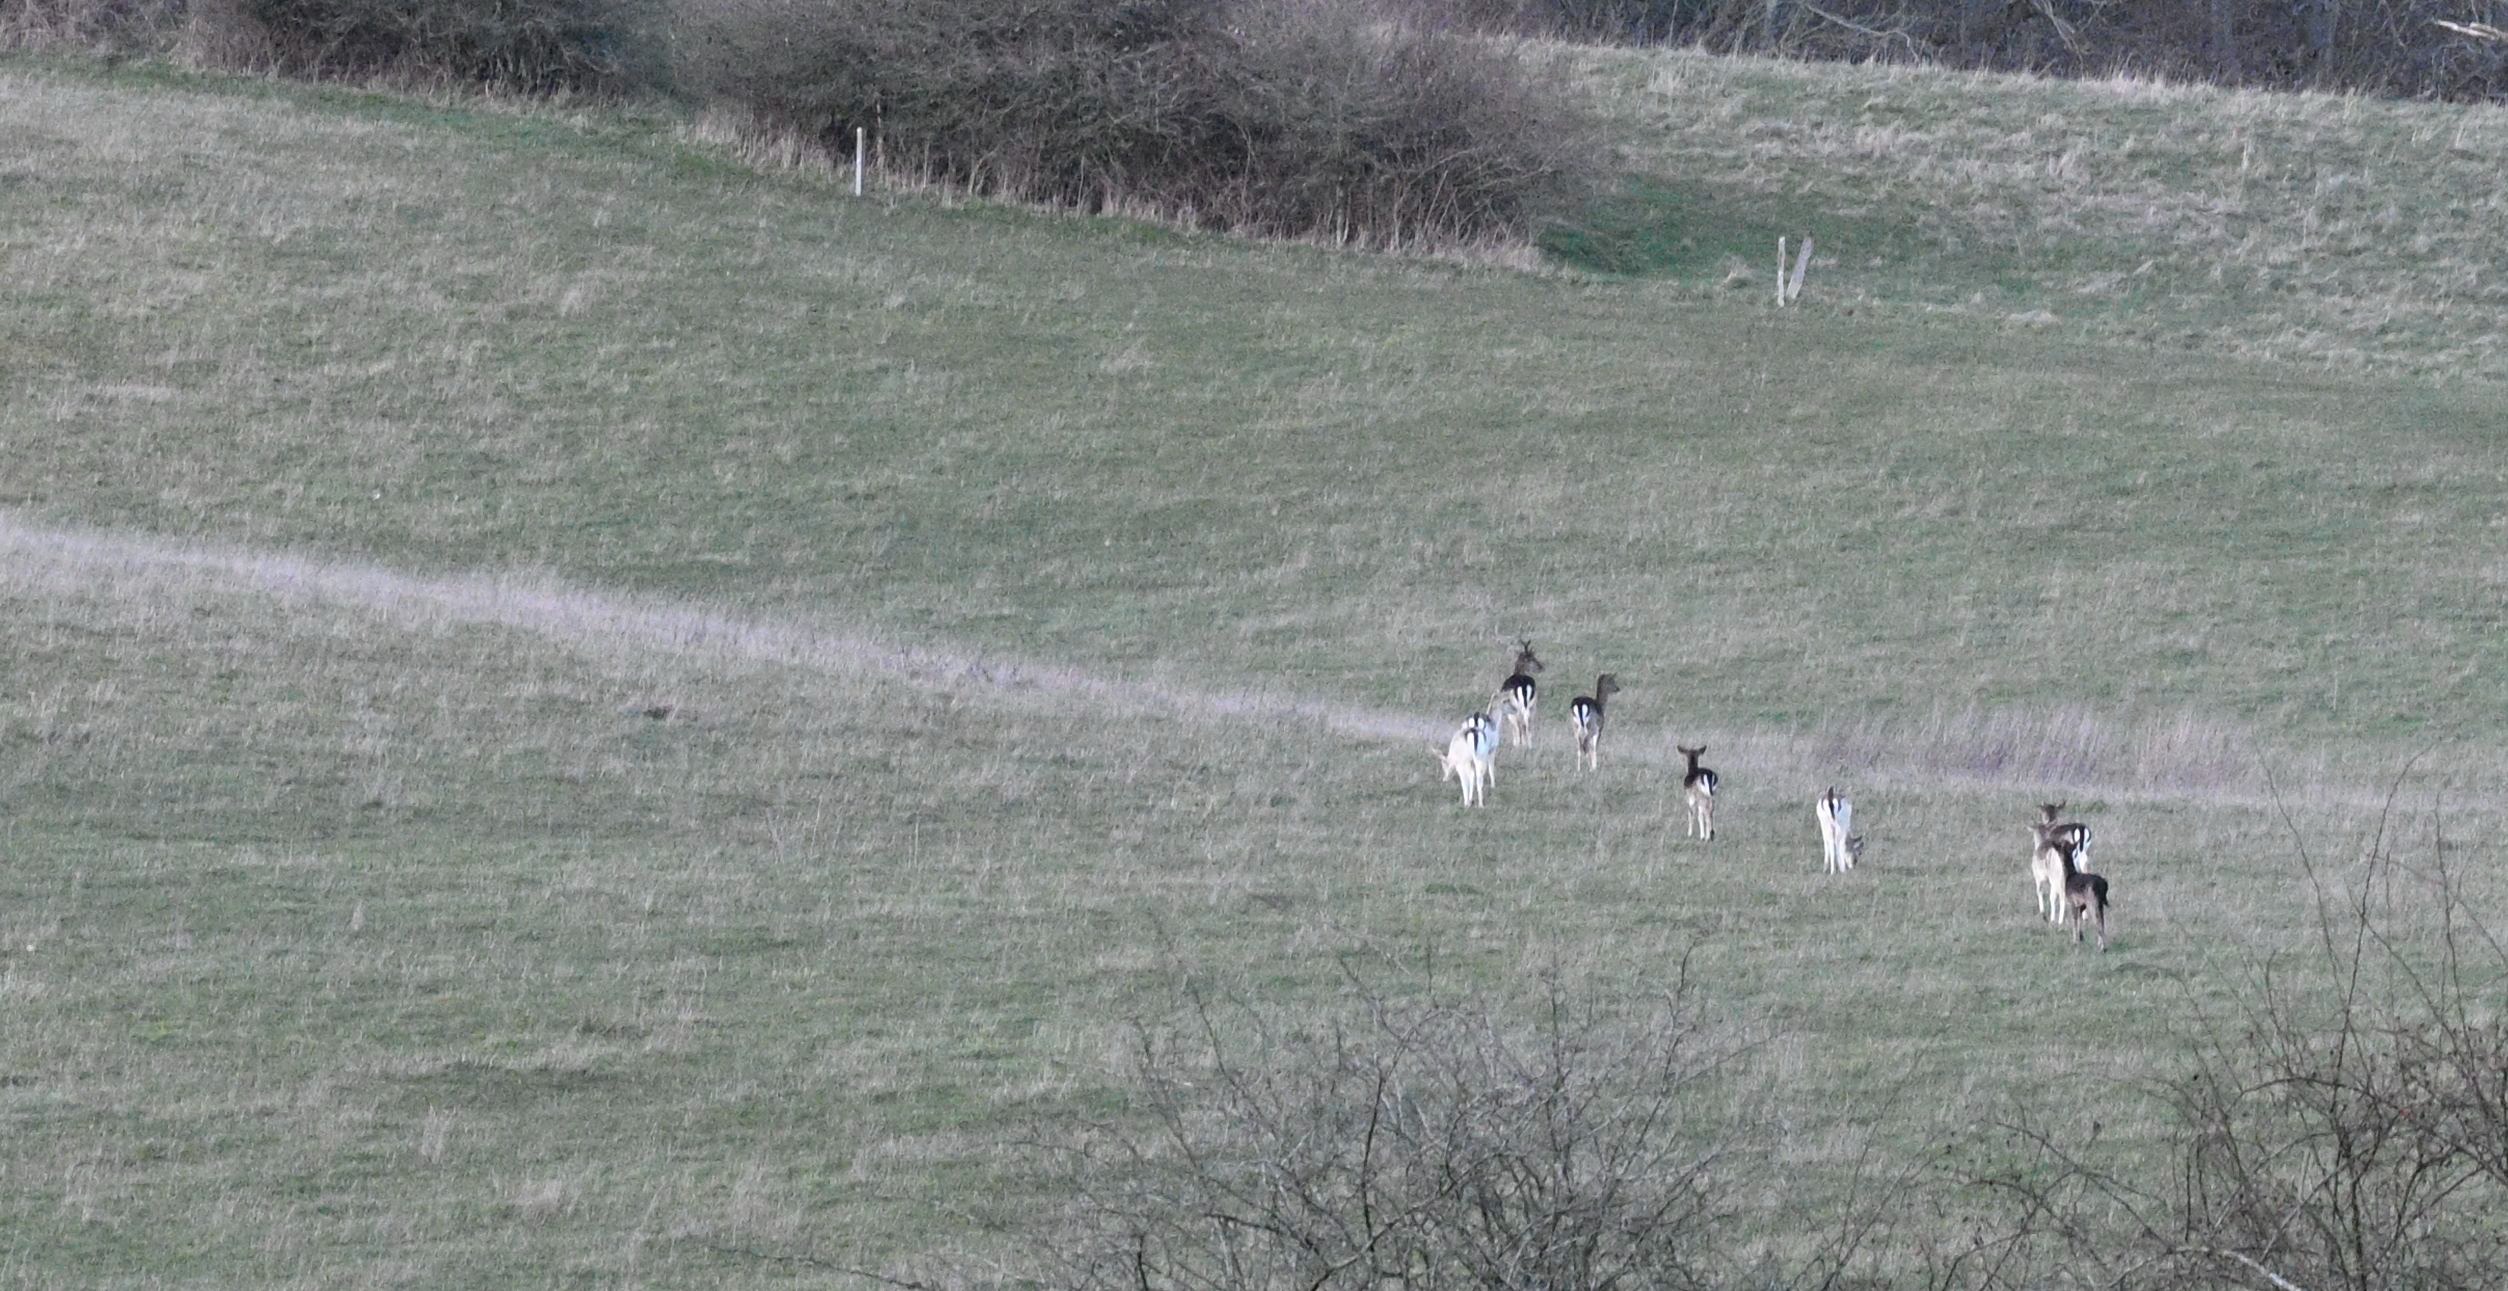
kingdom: Animalia
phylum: Chordata
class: Mammalia
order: Artiodactyla
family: Cervidae
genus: Dama
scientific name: Dama dama
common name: Dådyr
